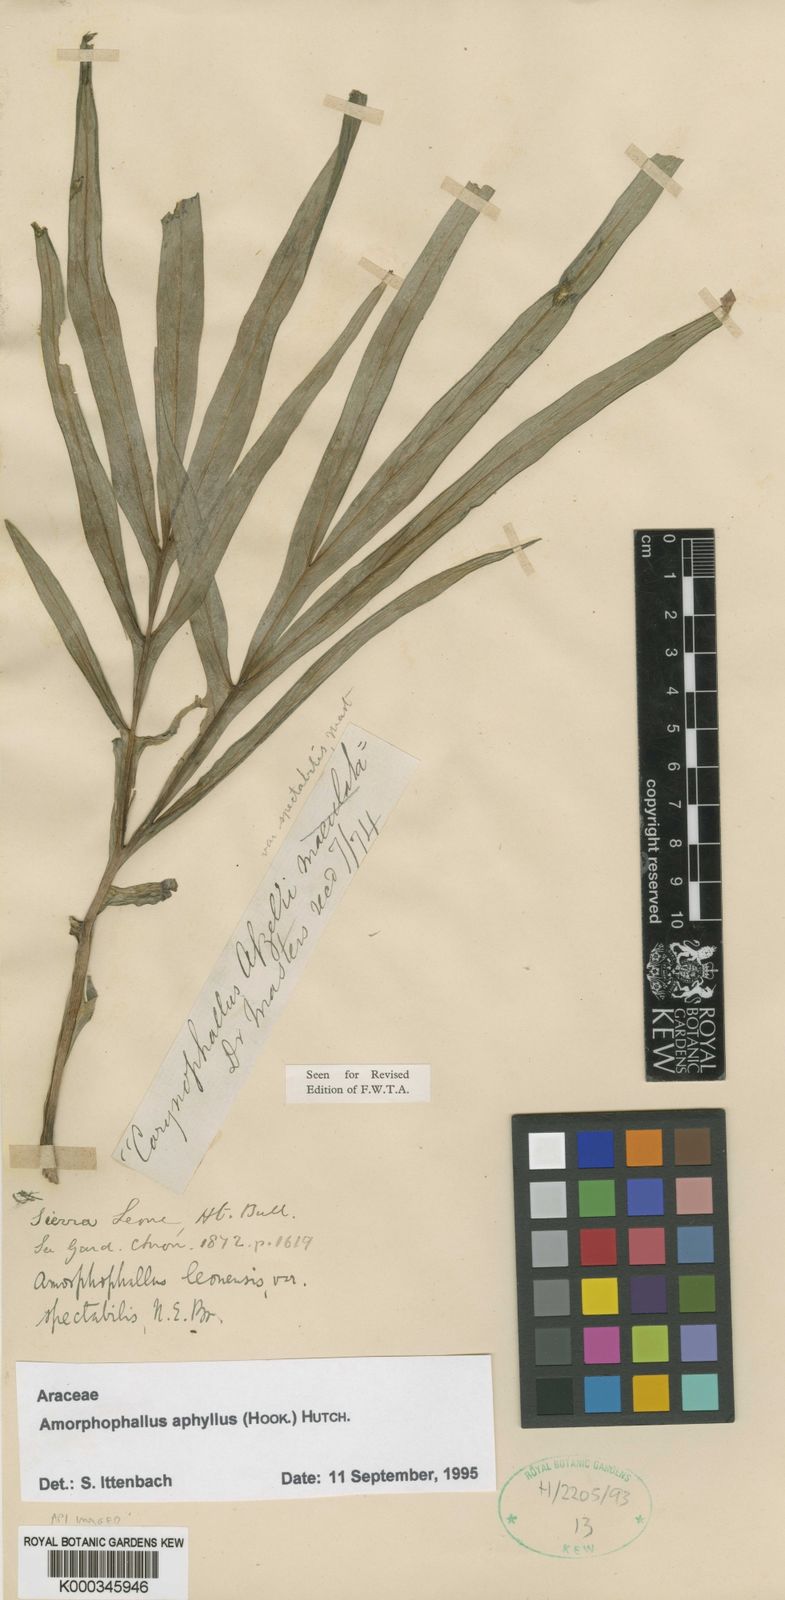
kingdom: Plantae
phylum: Tracheophyta
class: Liliopsida
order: Alismatales
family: Araceae
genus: Amorphophallus
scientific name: Amorphophallus aphyllus
